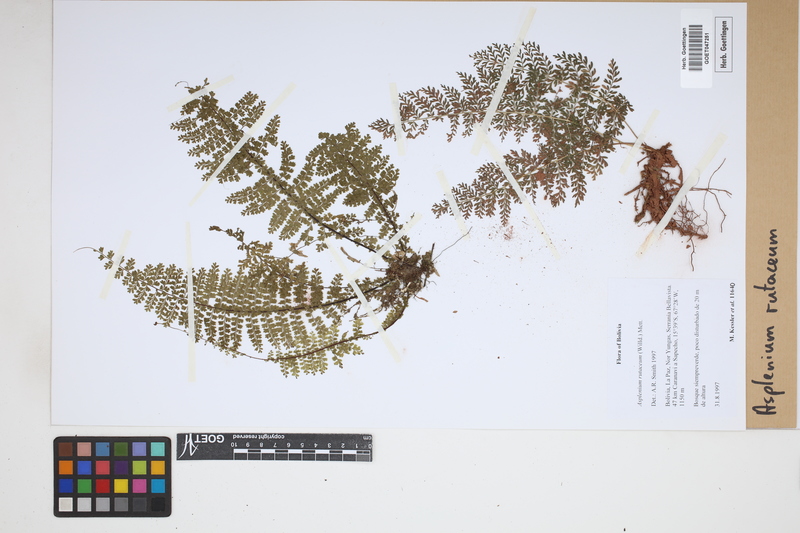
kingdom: Plantae
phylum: Tracheophyta
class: Polypodiopsida
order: Polypodiales
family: Aspleniaceae
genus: Asplenium
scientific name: Asplenium rutaceum
